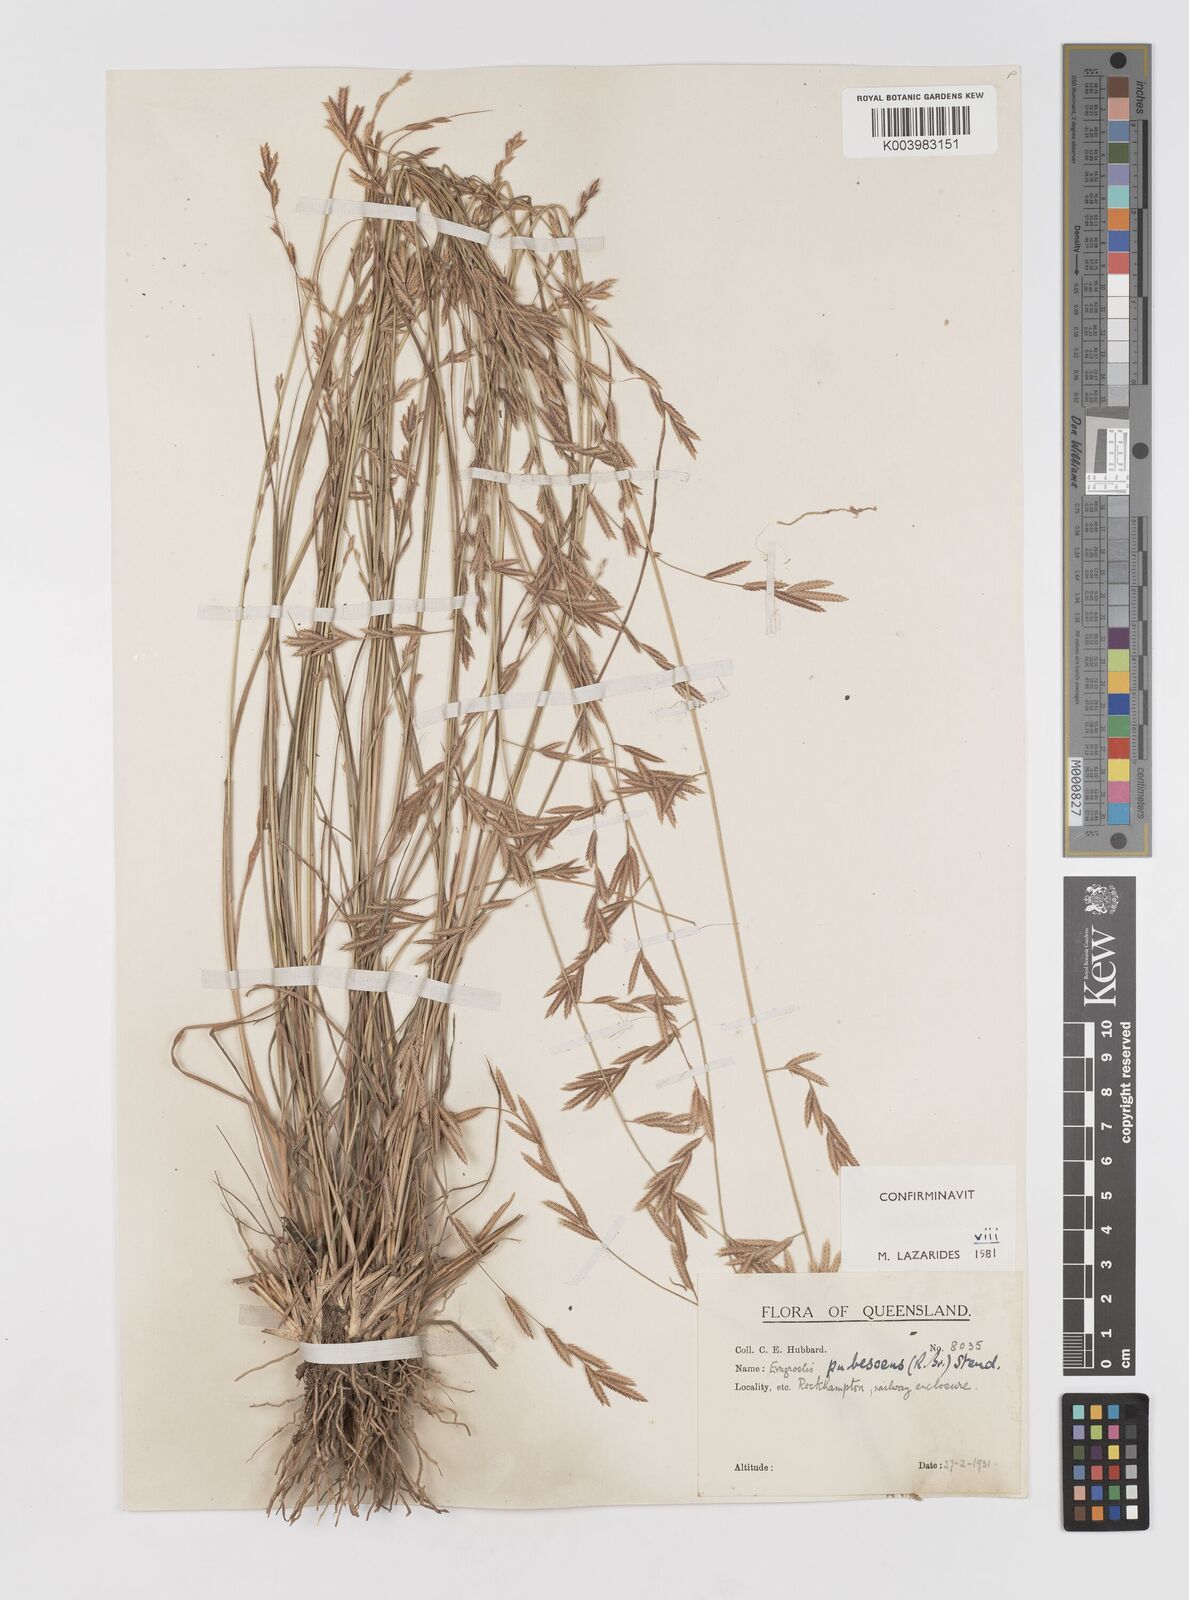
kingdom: Plantae
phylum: Tracheophyta
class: Liliopsida
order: Poales
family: Poaceae
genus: Eragrostis
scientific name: Eragrostis pubescens
